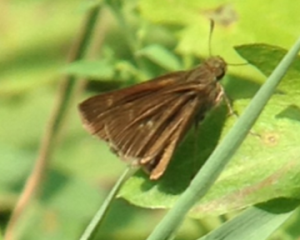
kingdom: Animalia
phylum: Arthropoda
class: Insecta
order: Lepidoptera
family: Hesperiidae
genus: Euphyes
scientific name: Euphyes vestris
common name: Dun Skipper
